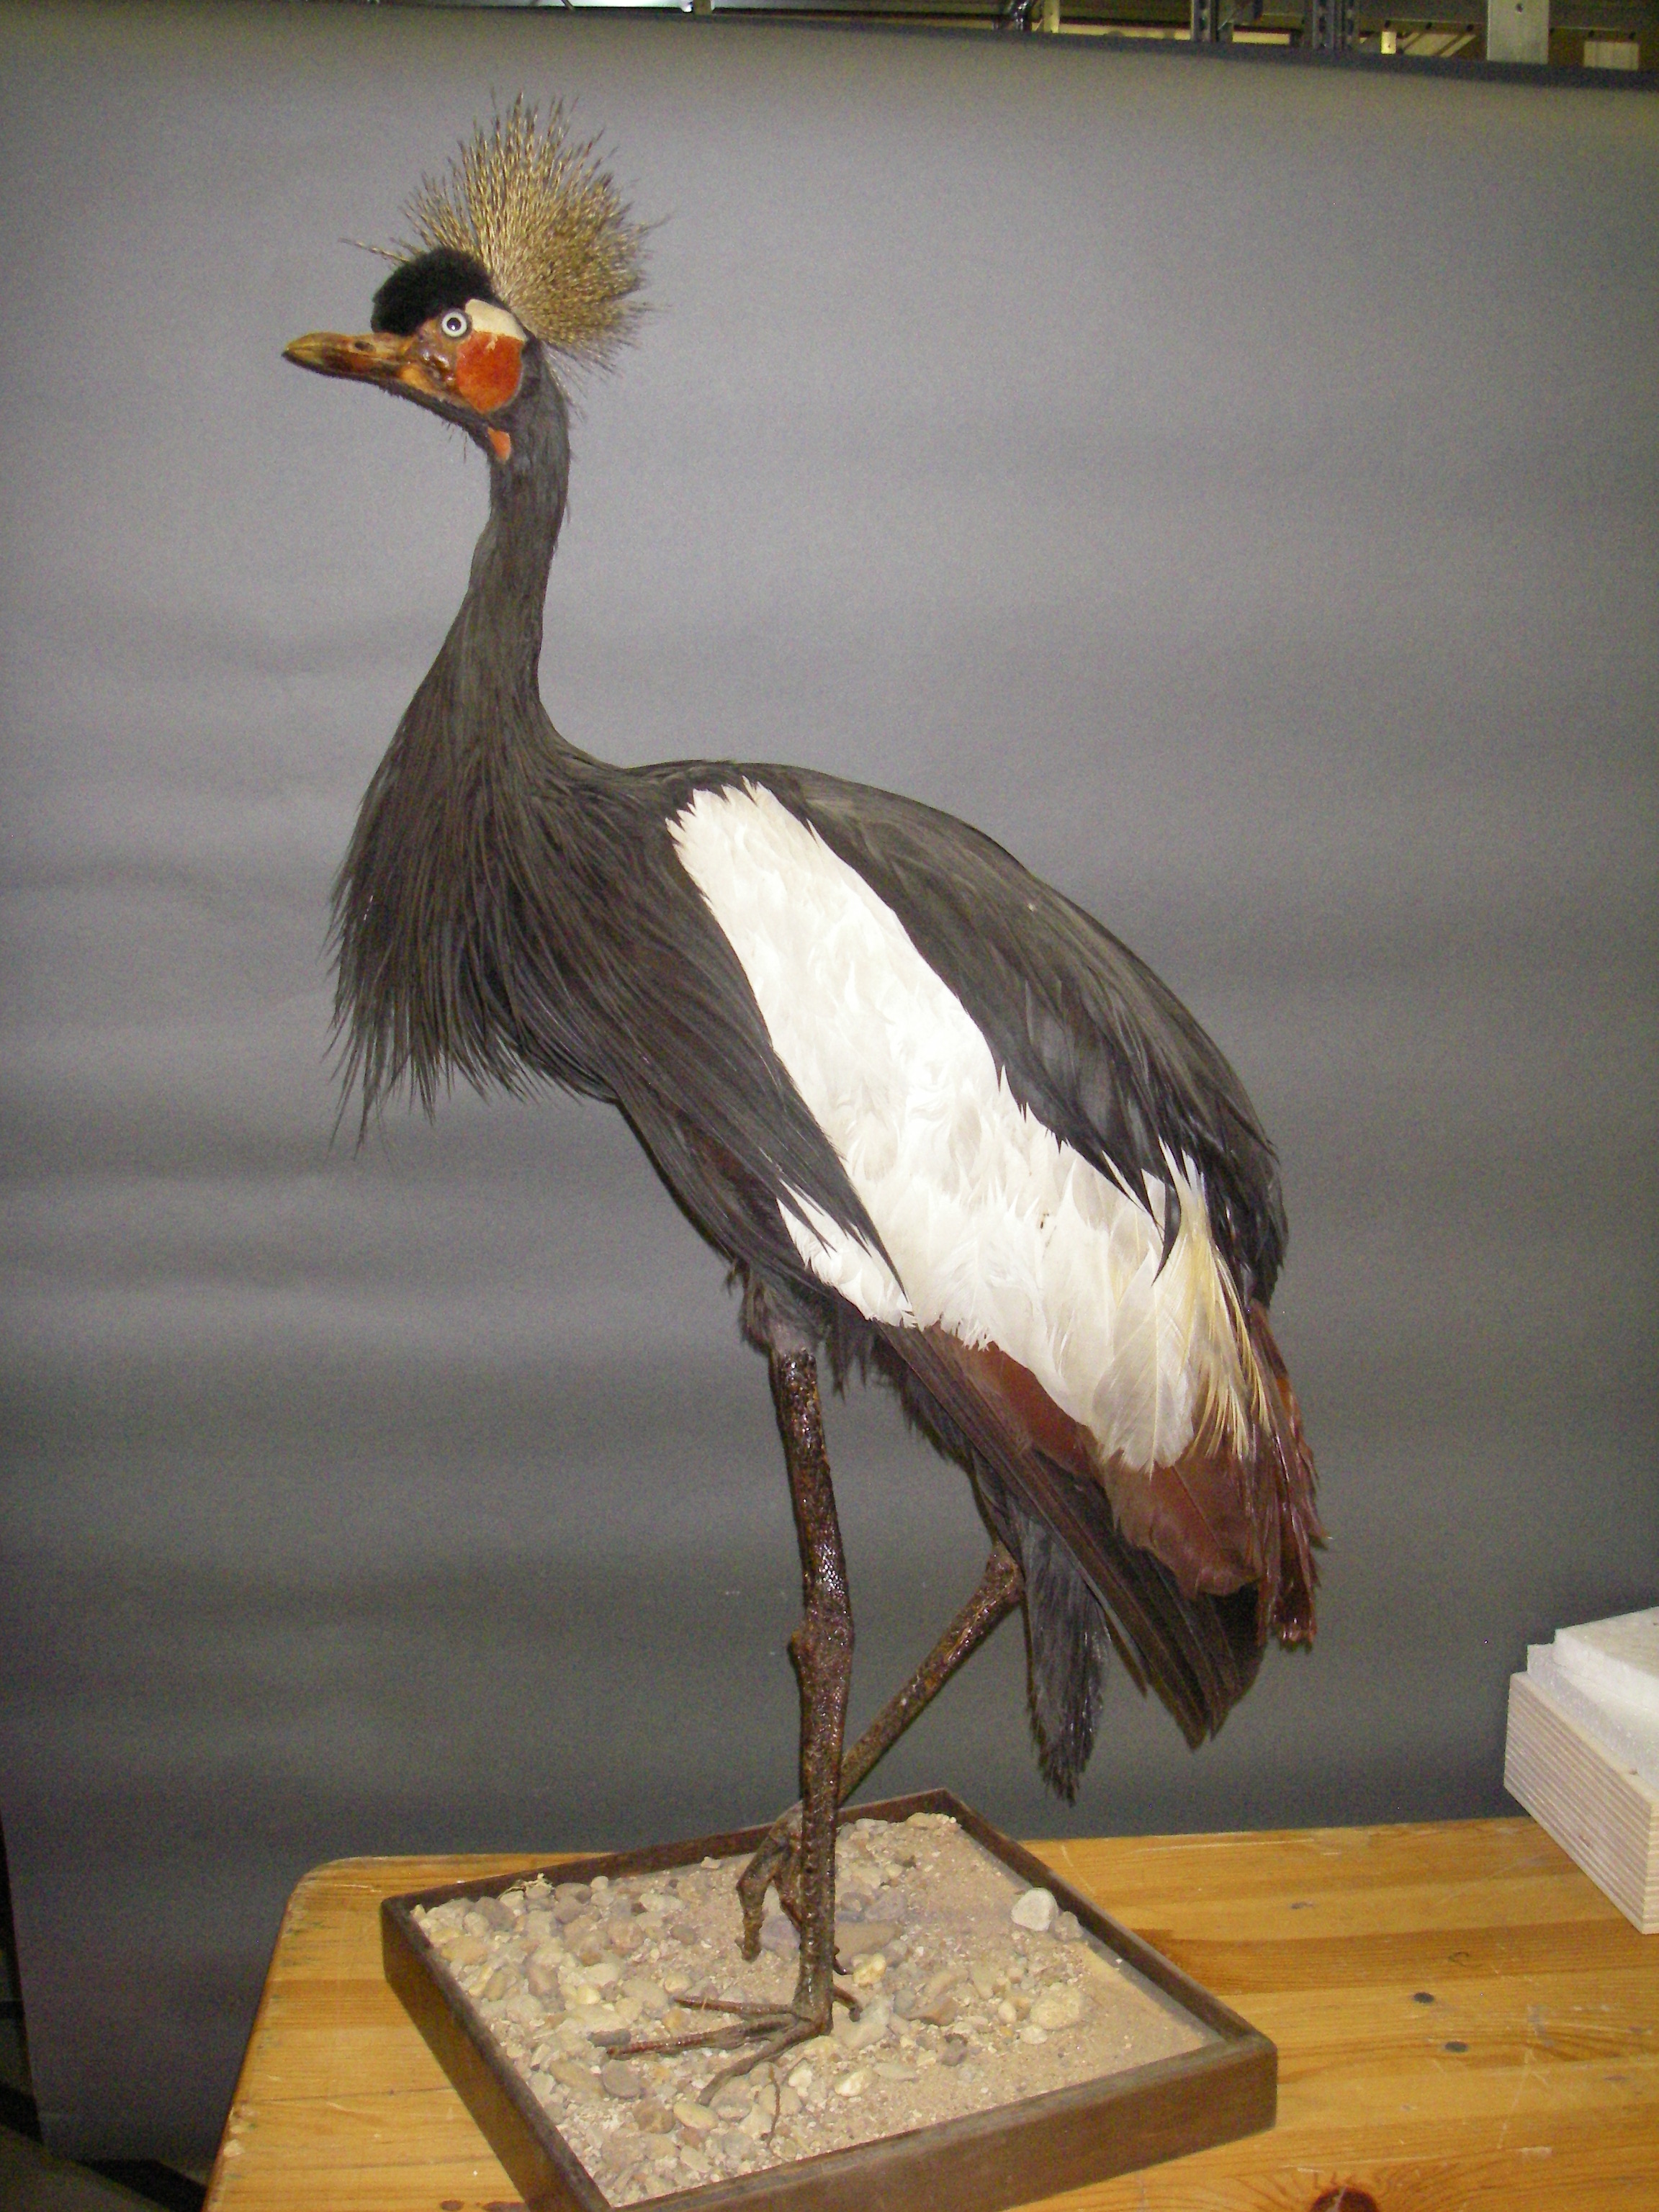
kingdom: Animalia
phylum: Chordata
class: Aves
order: Gruiformes
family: Gruidae
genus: Balearica
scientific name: Balearica pavonina
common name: Black crowned crane
